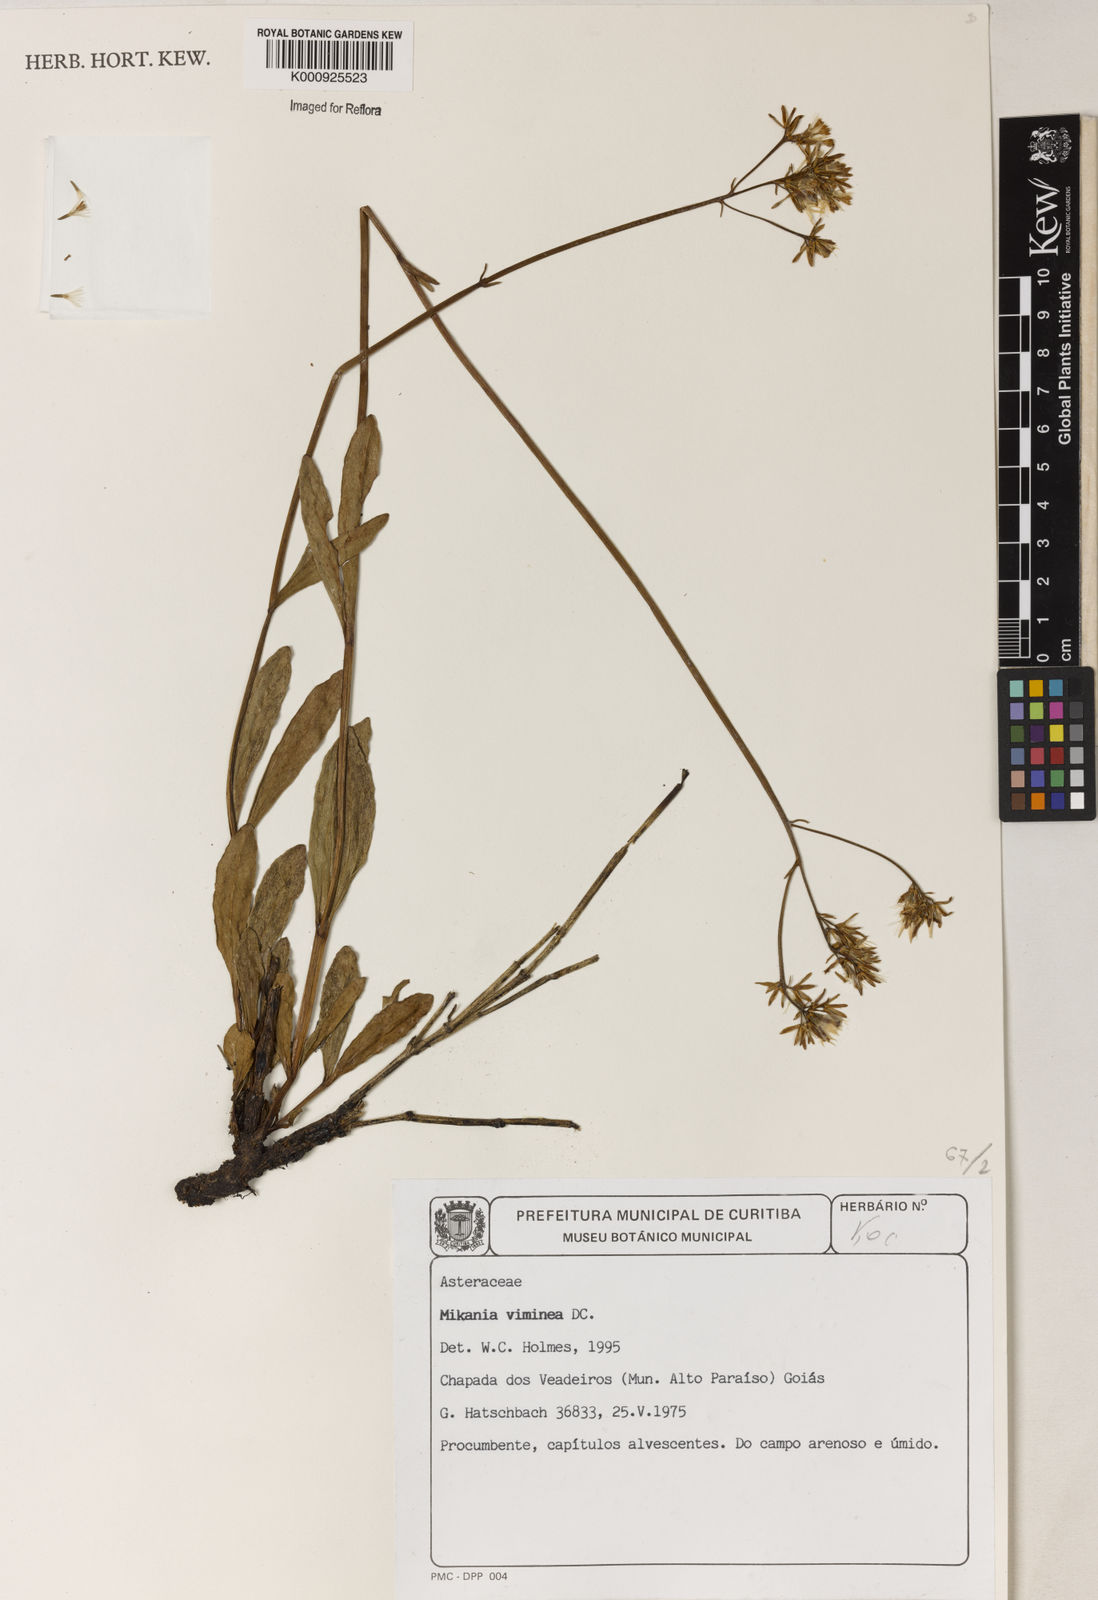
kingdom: Plantae
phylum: Tracheophyta
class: Magnoliopsida
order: Asterales
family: Asteraceae
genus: Mikania
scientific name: Mikania alvimii
